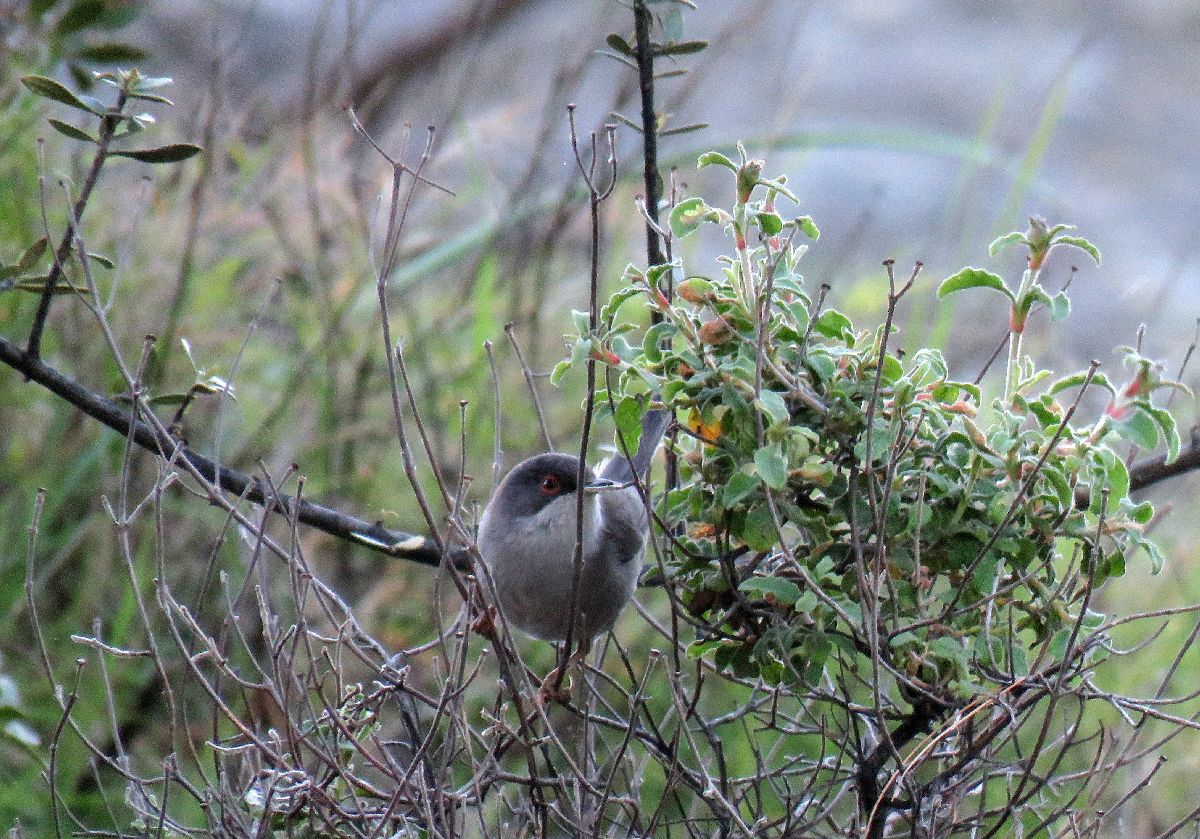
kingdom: Animalia
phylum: Chordata
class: Aves
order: Passeriformes
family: Sylviidae
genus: Sylvia
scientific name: Sylvia melanocephala
